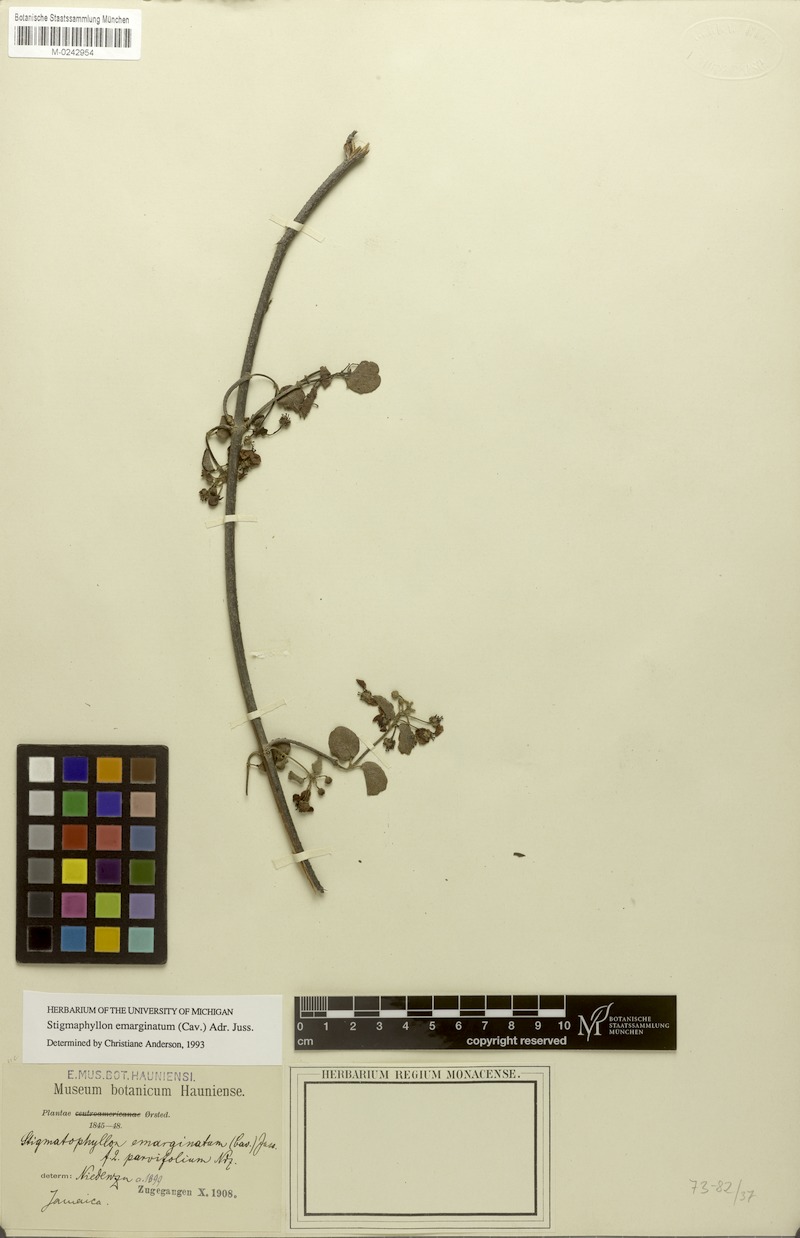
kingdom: Plantae
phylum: Tracheophyta
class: Magnoliopsida
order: Malpighiales
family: Malpighiaceae
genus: Stigmaphyllon
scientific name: Stigmaphyllon emarginatum
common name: Monarch amazonvine
